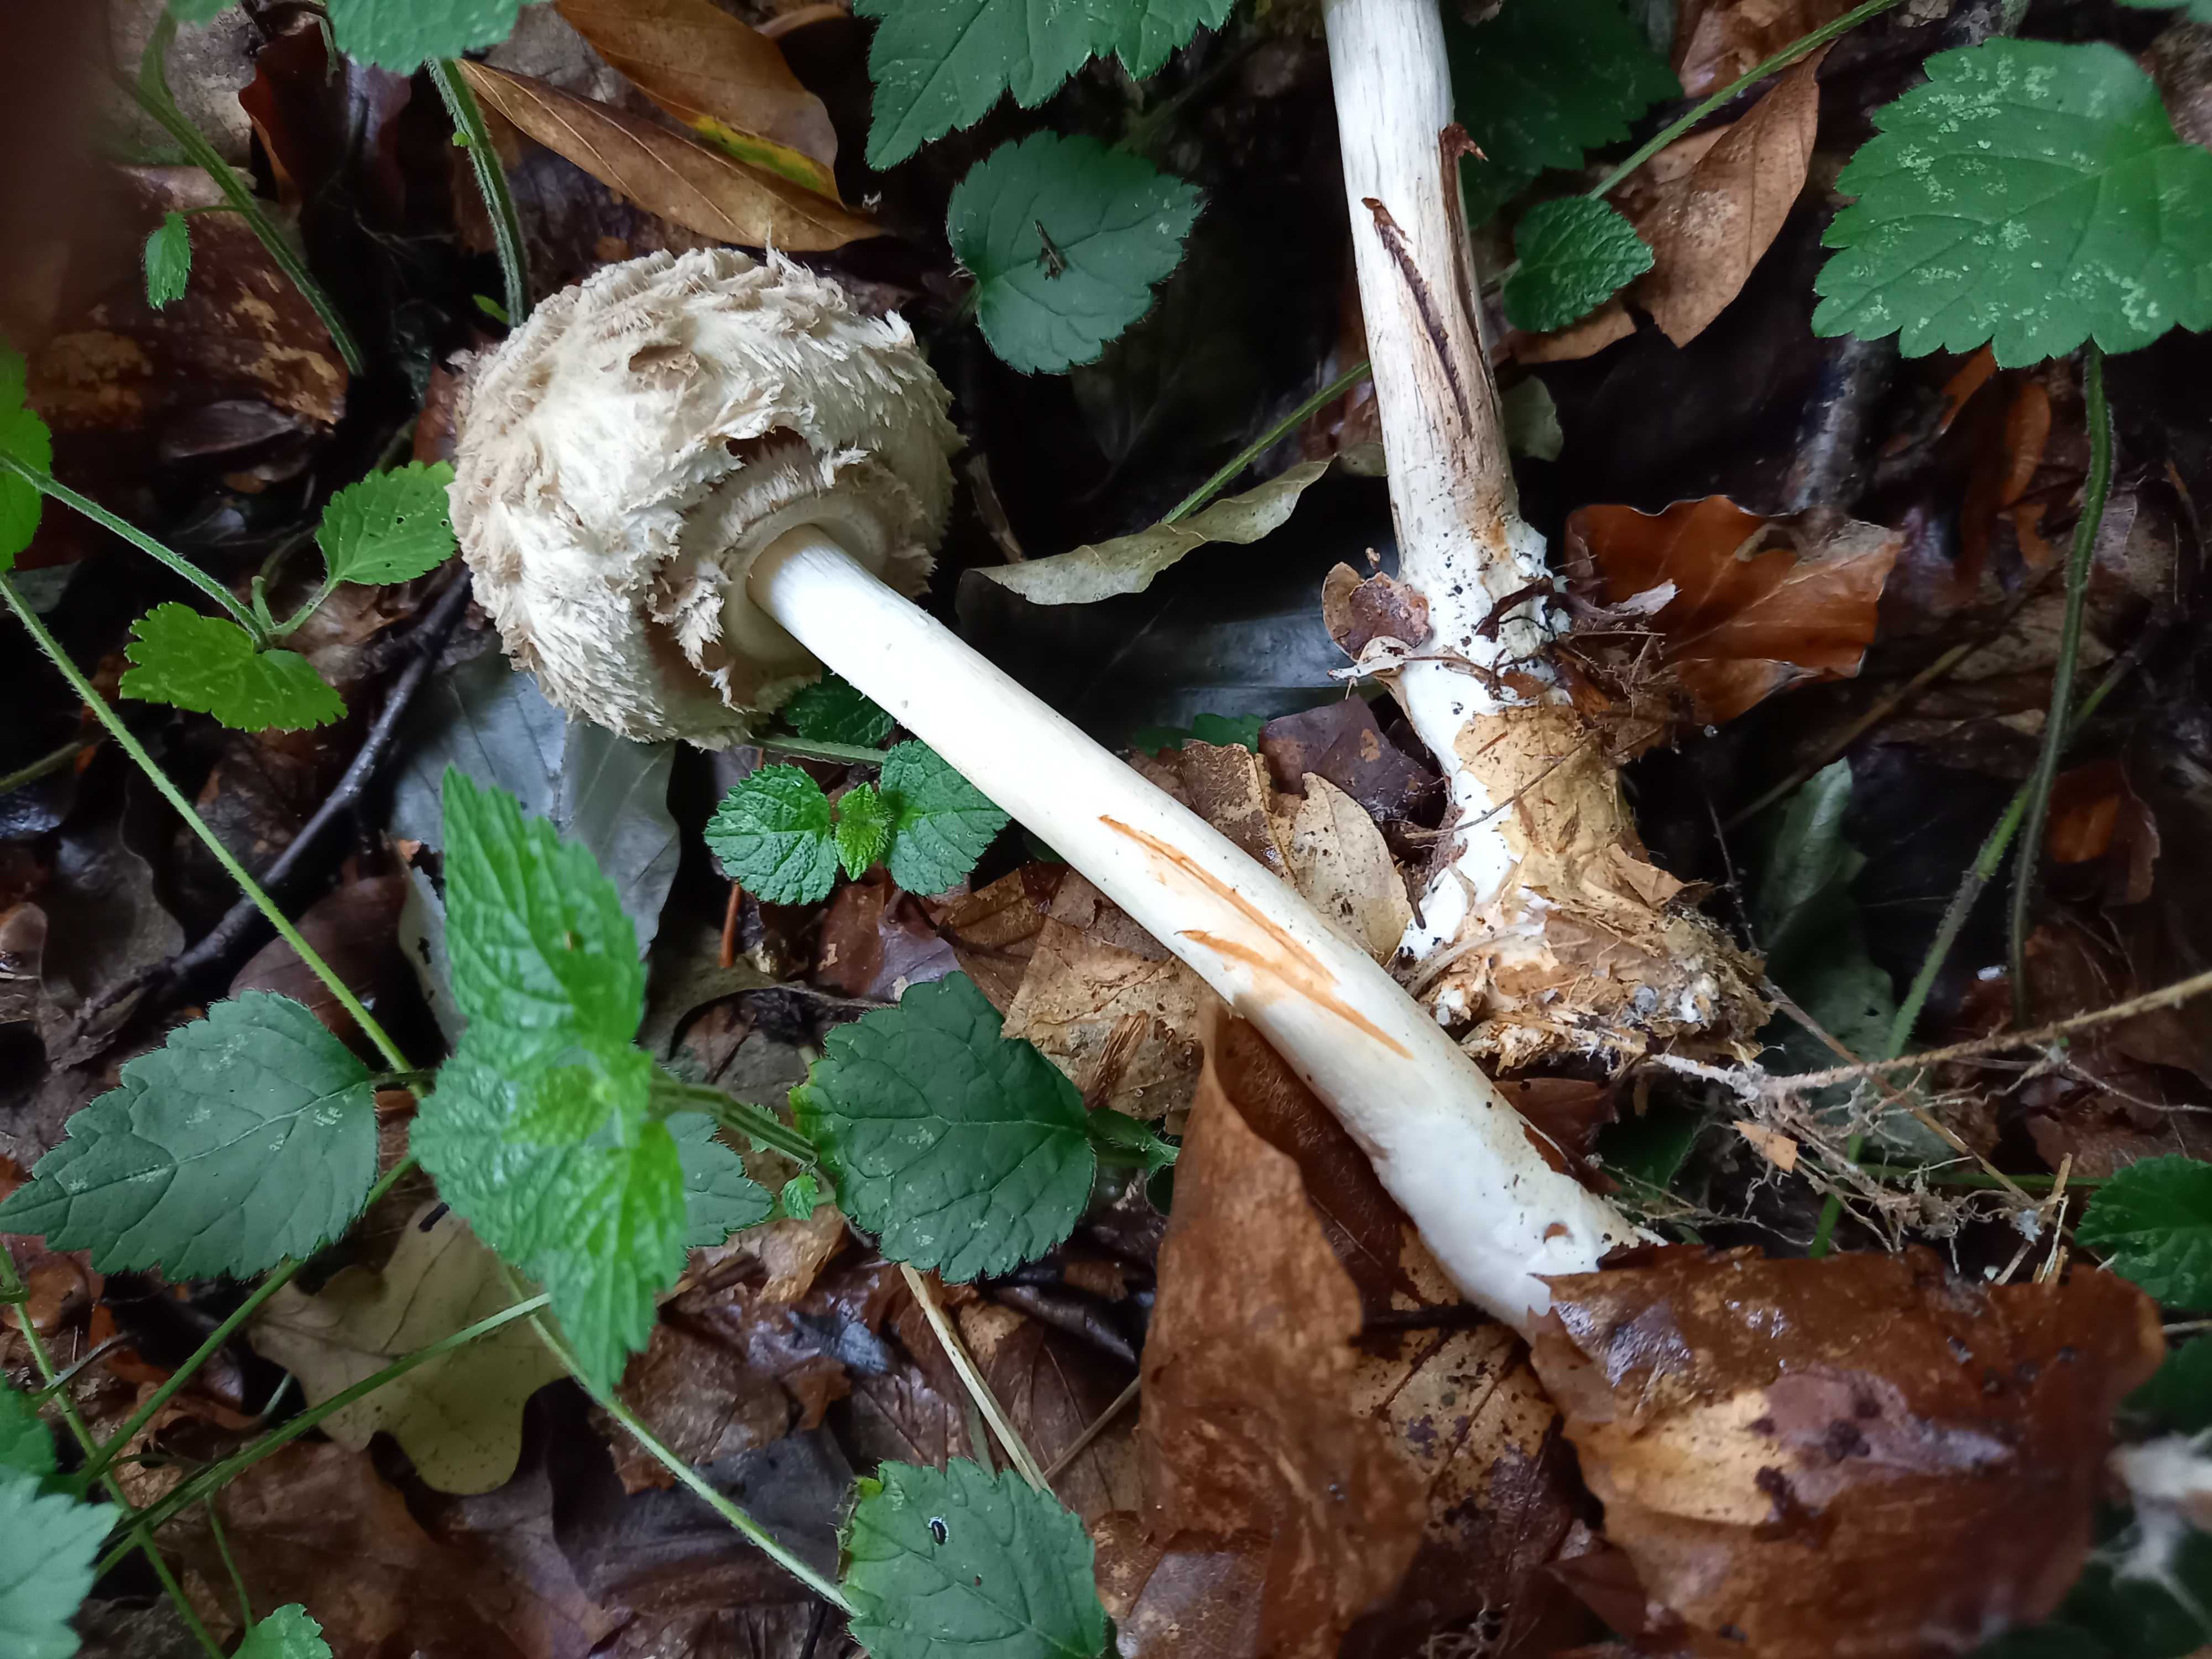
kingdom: Fungi
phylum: Basidiomycota
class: Agaricomycetes
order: Agaricales
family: Agaricaceae
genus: Chlorophyllum
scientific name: Chlorophyllum olivieri
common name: almindelig rabarberhat
